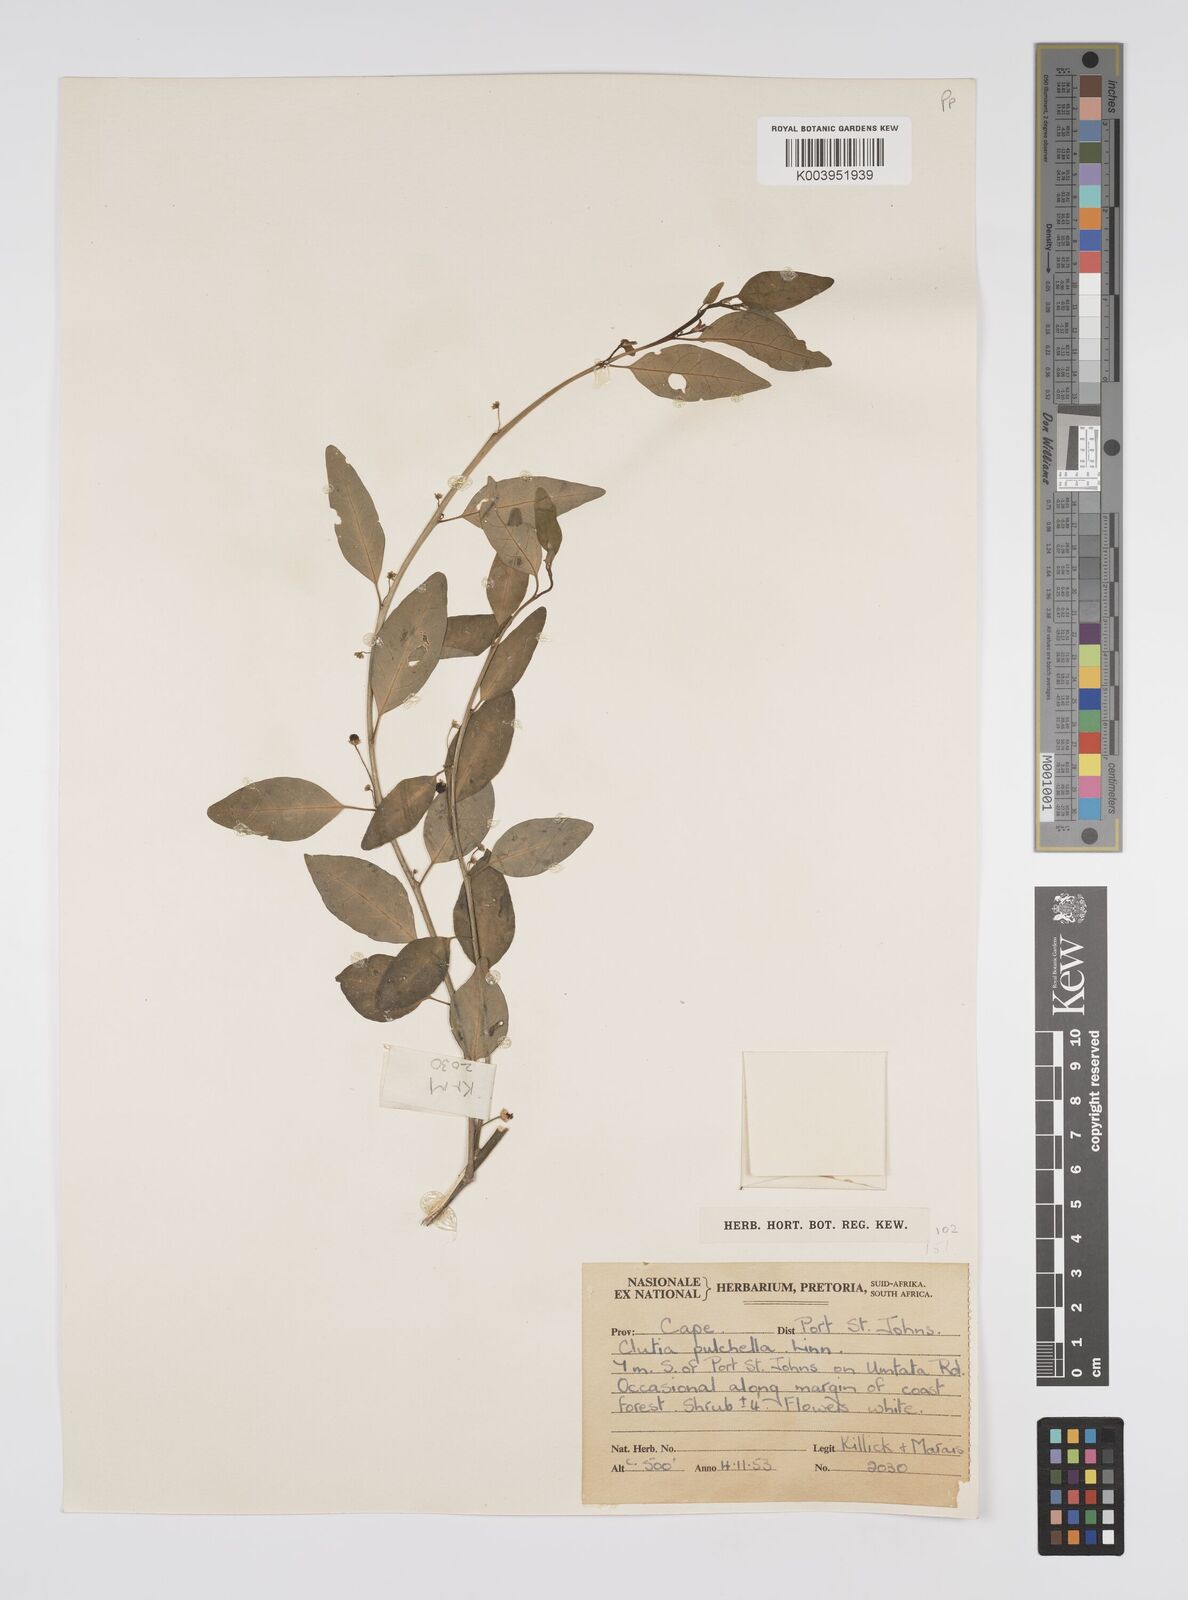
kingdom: Plantae
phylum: Tracheophyta
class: Magnoliopsida
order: Malpighiales
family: Peraceae
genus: Clutia
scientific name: Clutia pulchella
